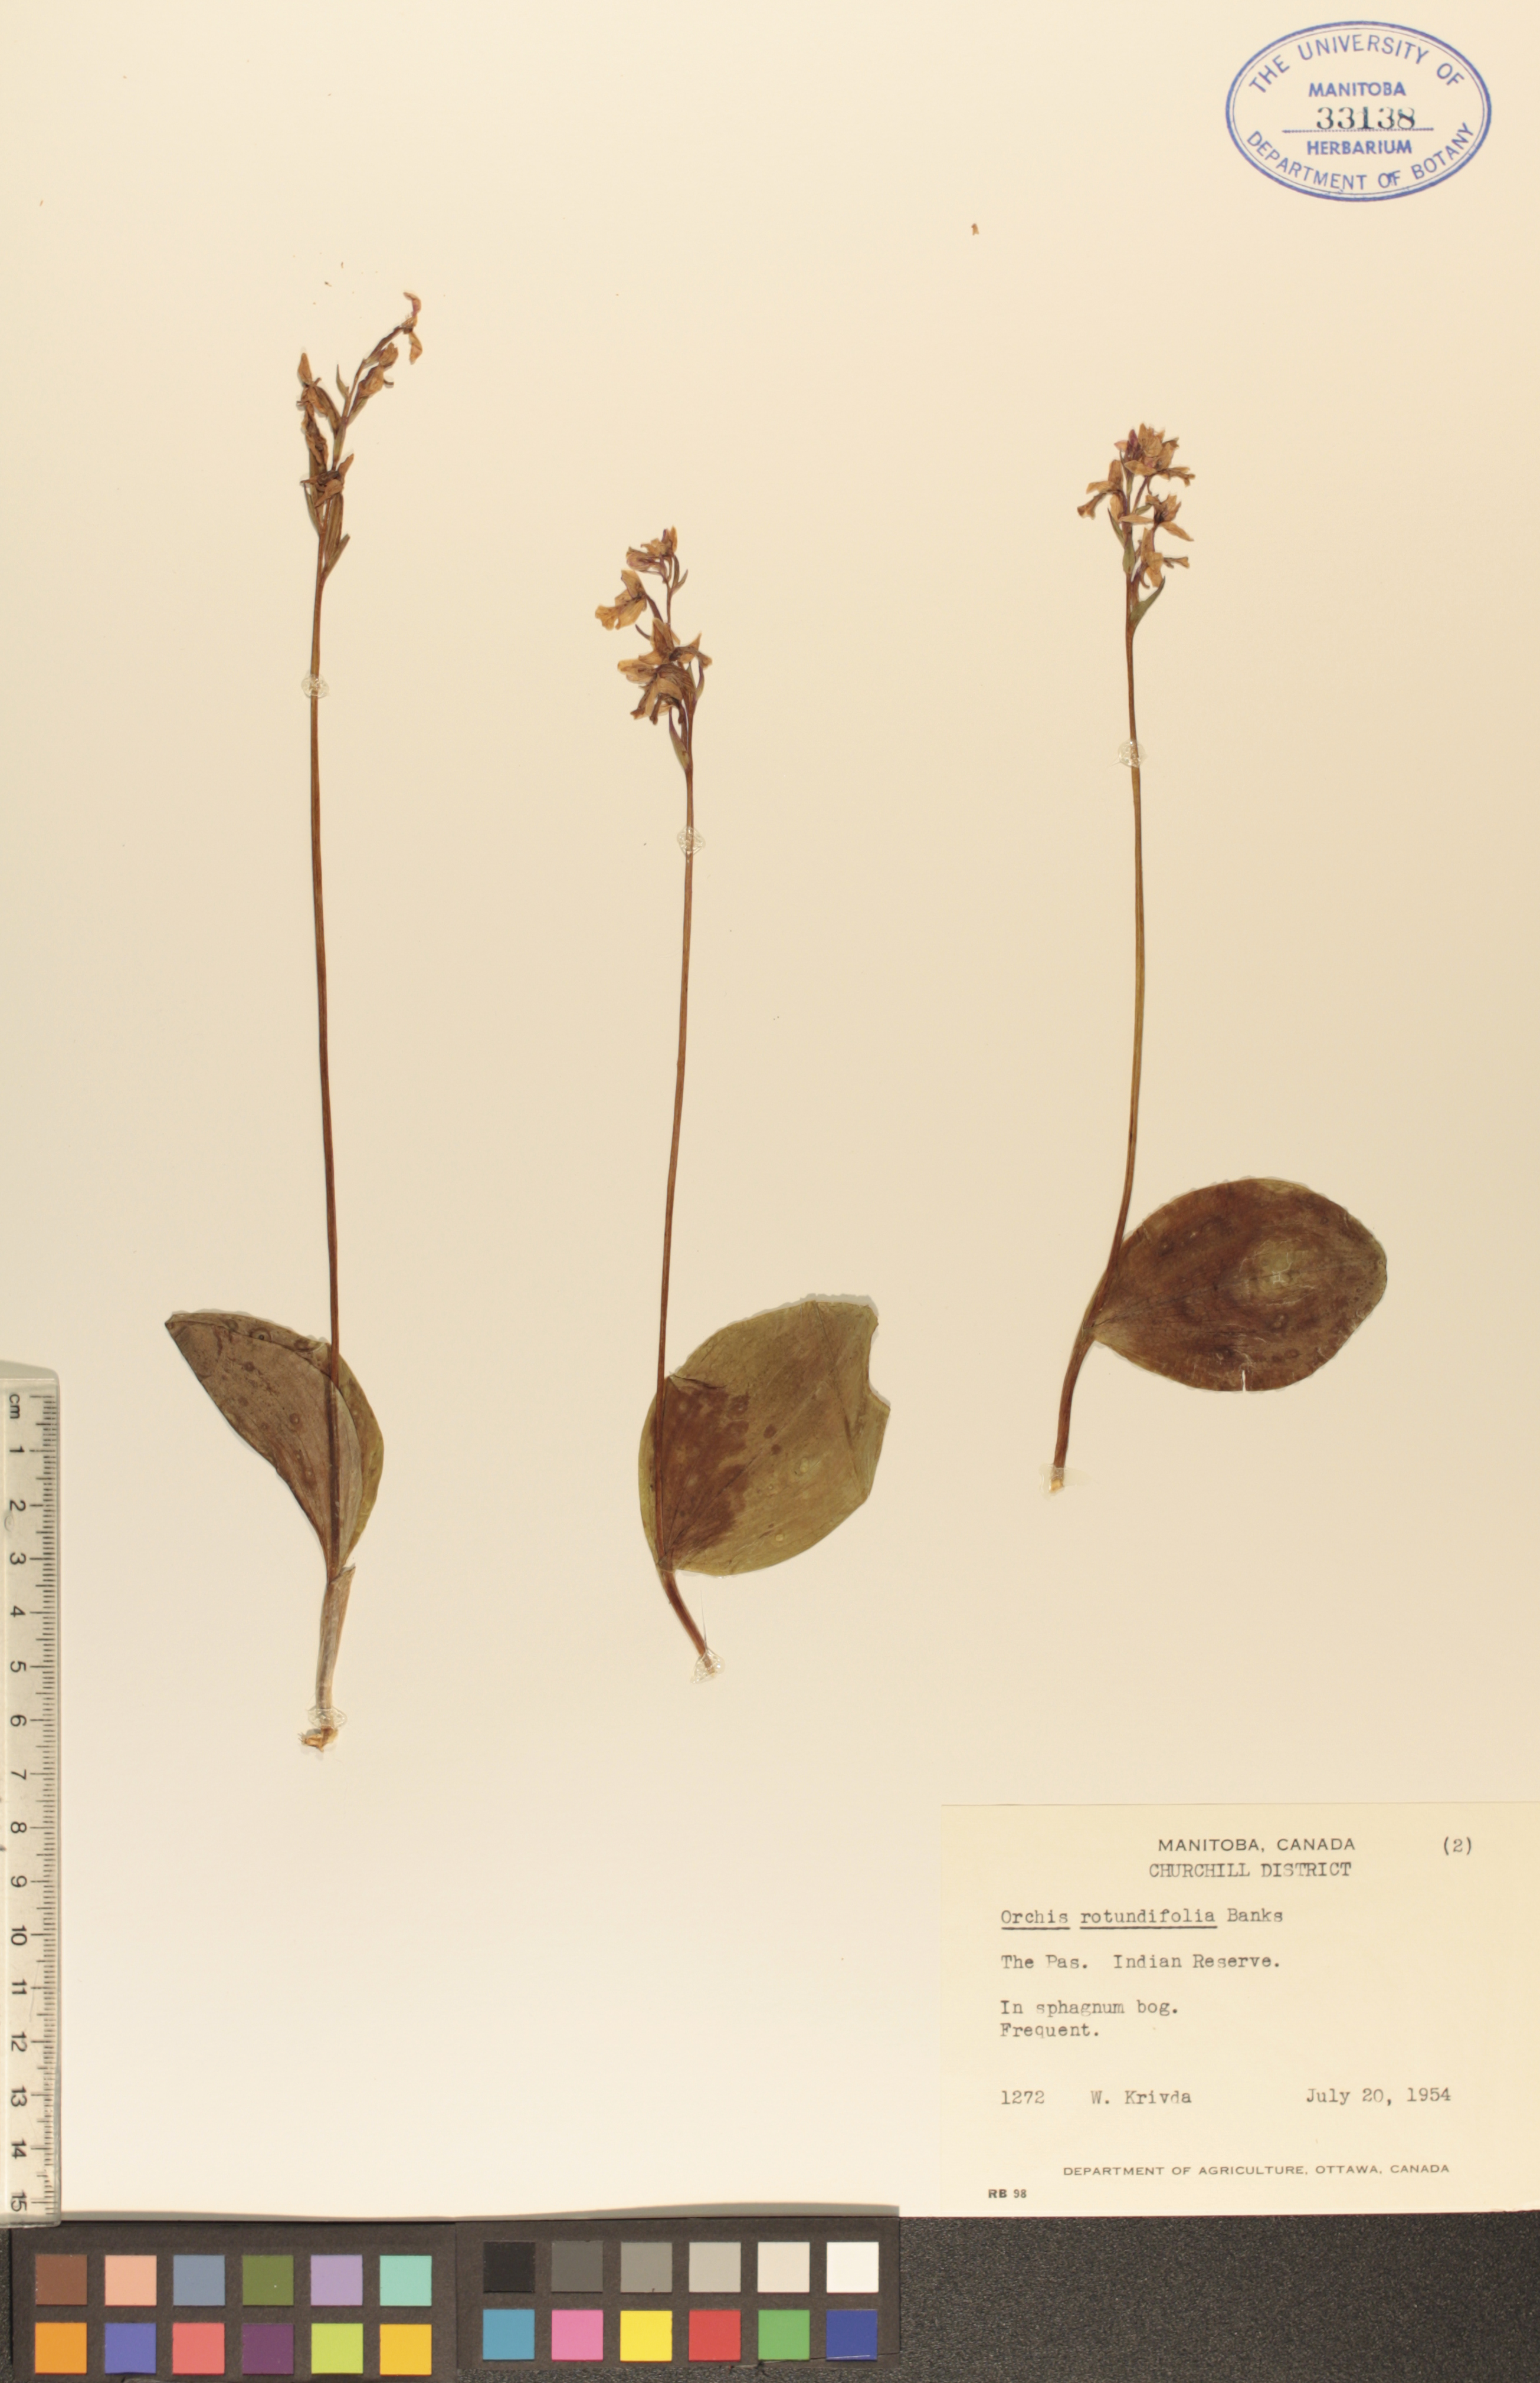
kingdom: Plantae
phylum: Tracheophyta
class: Liliopsida
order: Asparagales
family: Orchidaceae
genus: Galearis
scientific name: Galearis rotundifolia
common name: One-leaved orchis
